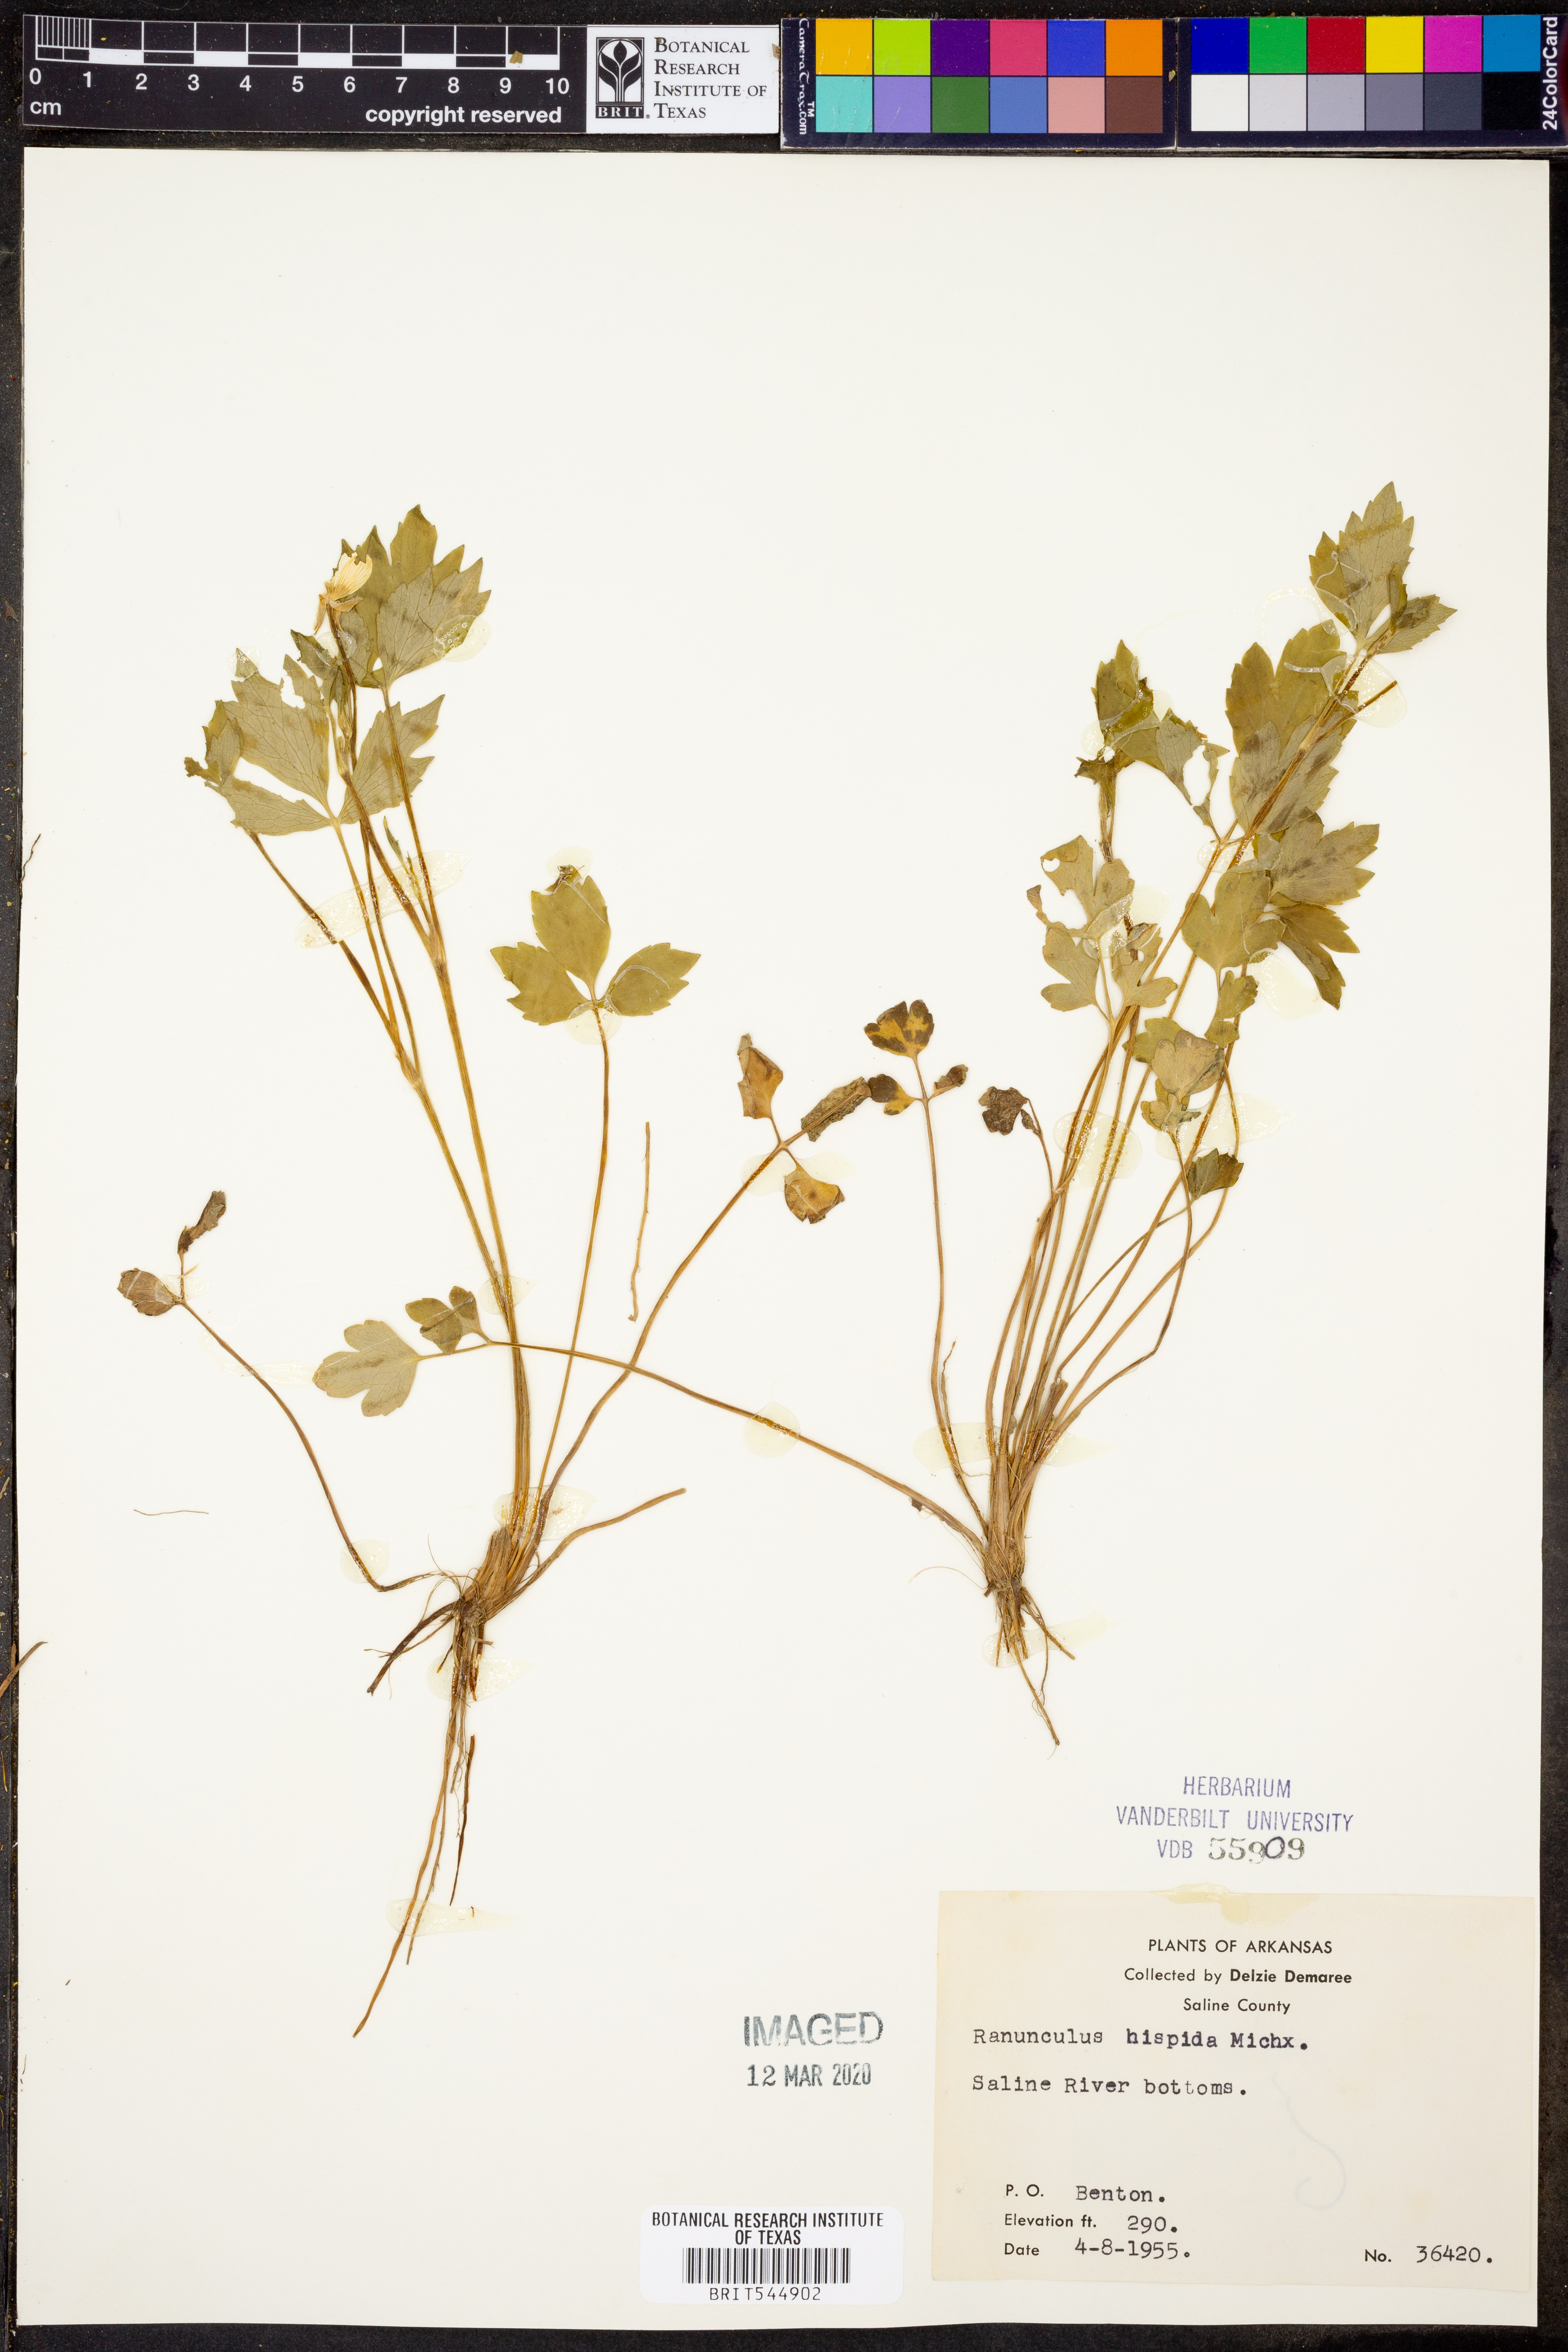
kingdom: Plantae
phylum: Tracheophyta
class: Magnoliopsida
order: Ranunculales
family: Ranunculaceae
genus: Ranunculus
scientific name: Ranunculus hispidus
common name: Bristly buttercup
